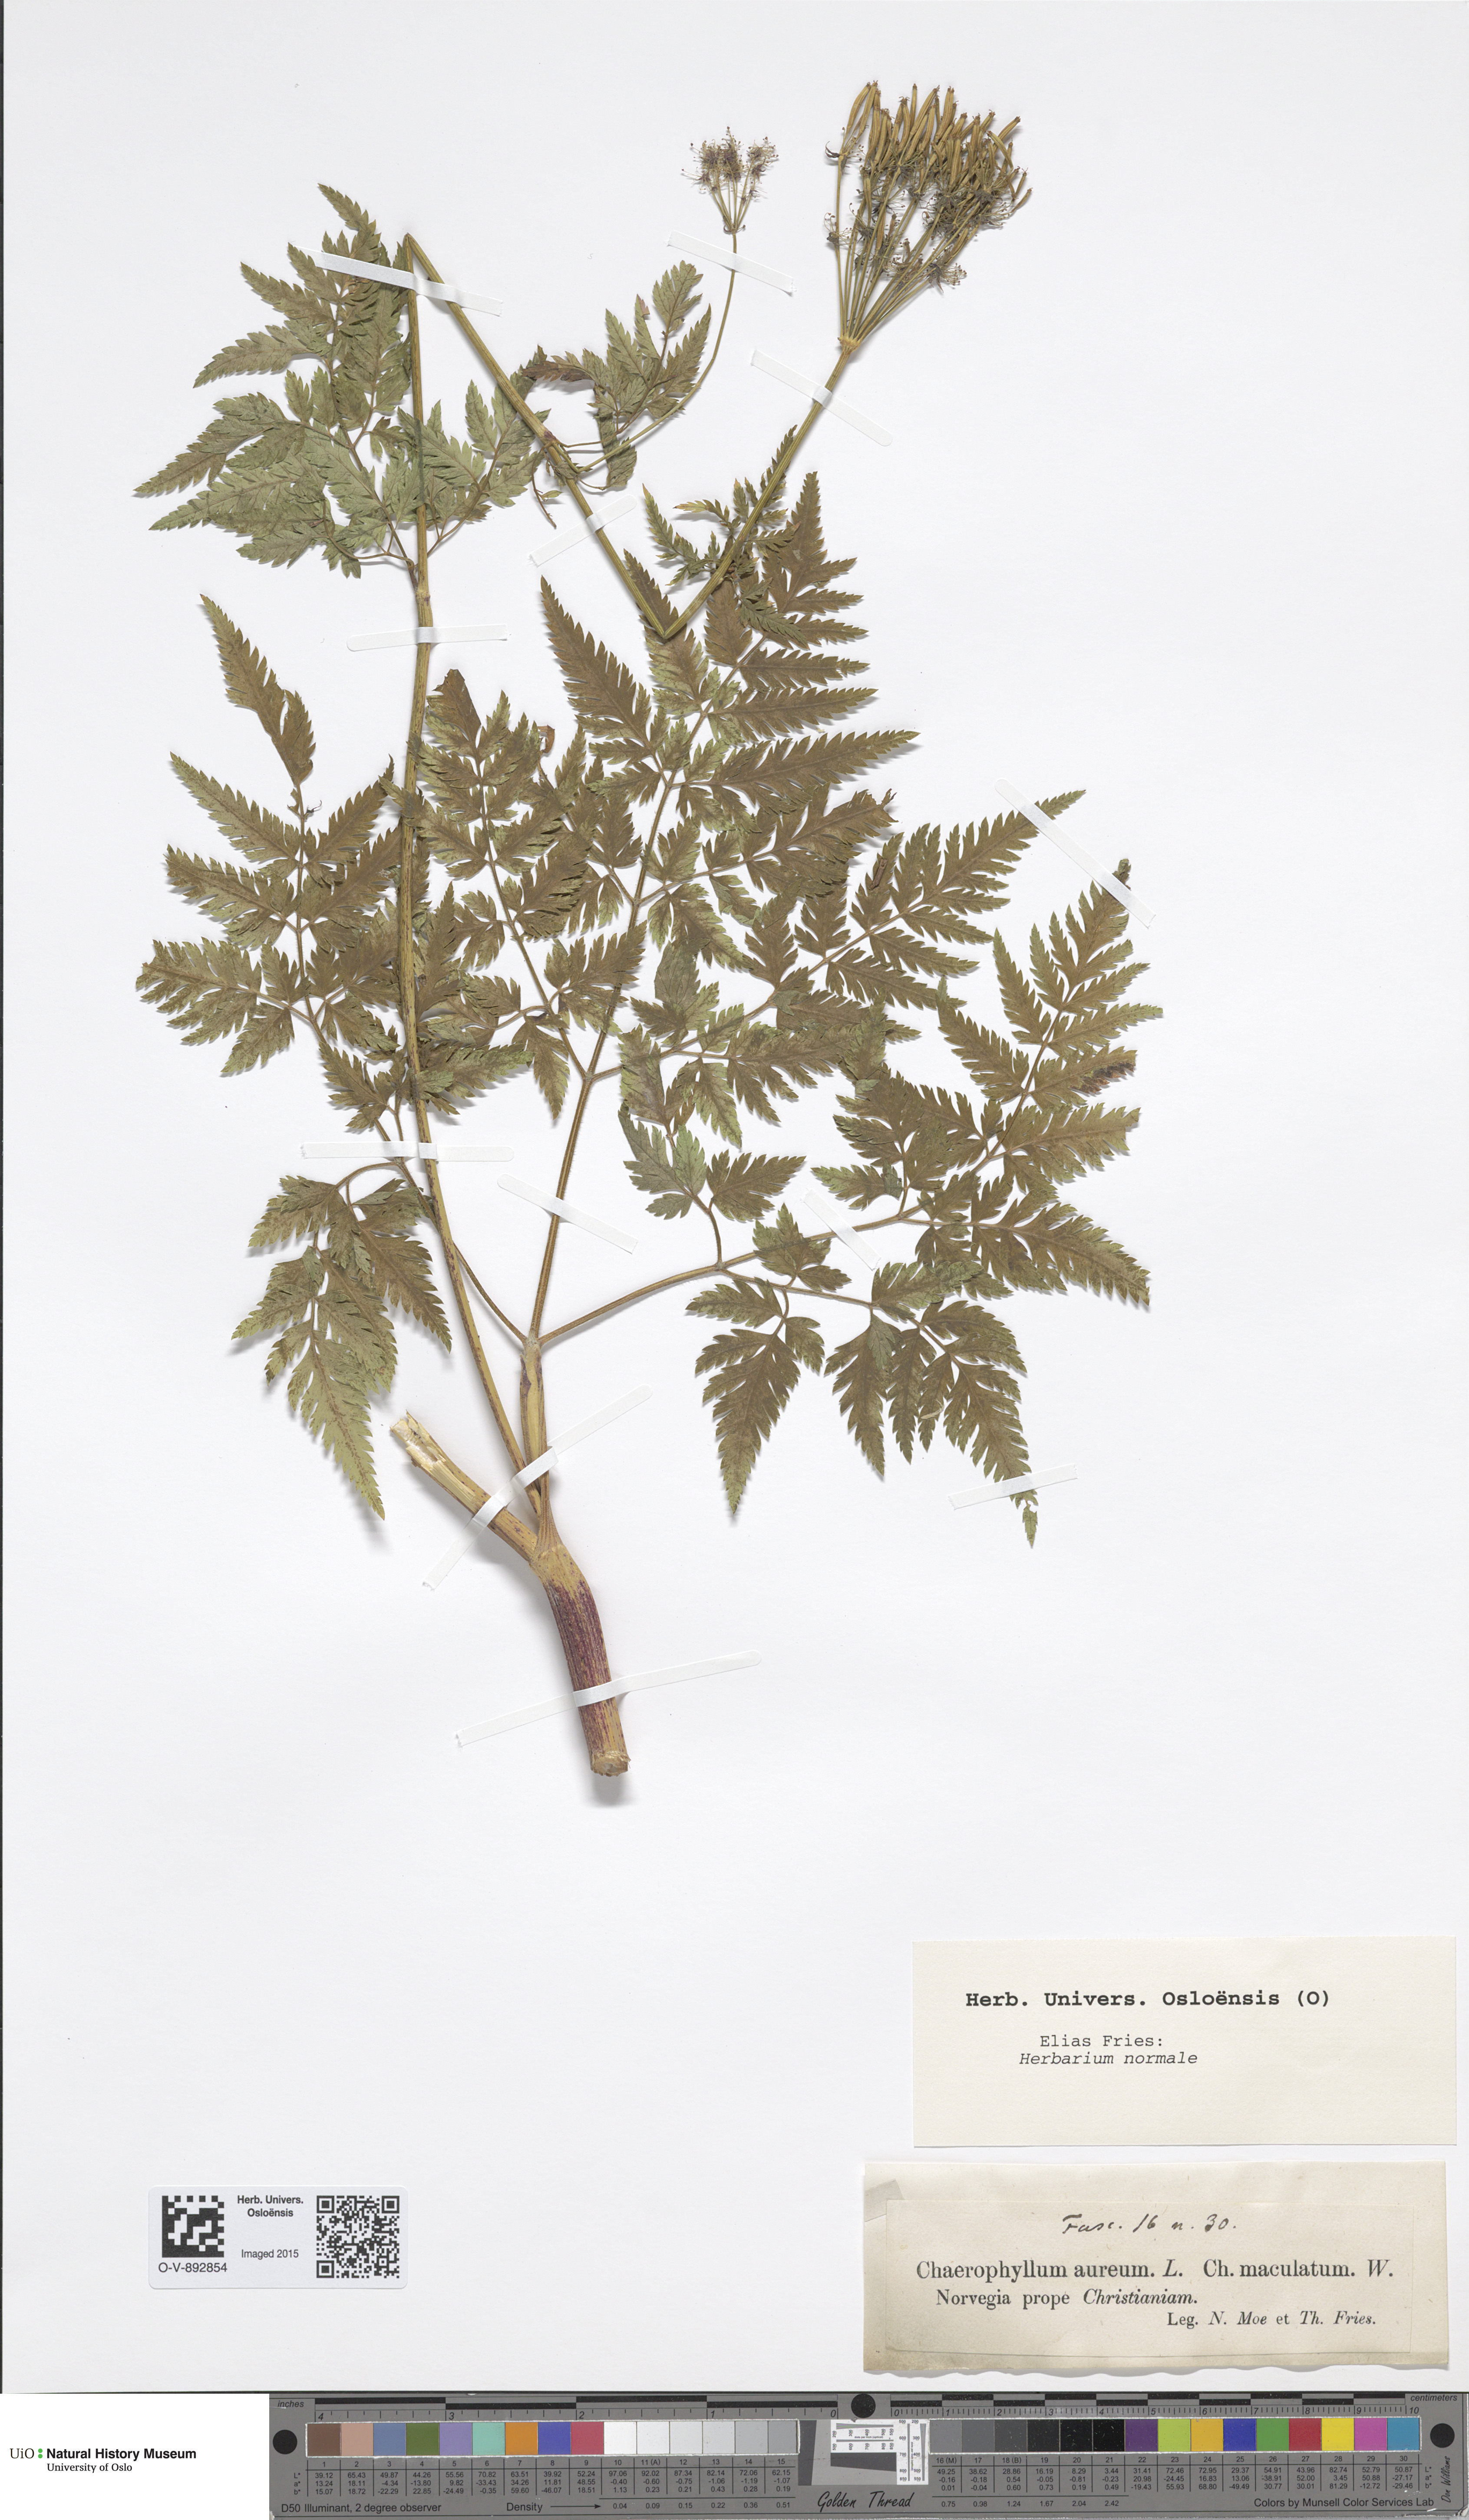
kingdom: Plantae
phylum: Tracheophyta
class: Magnoliopsida
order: Apiales
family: Apiaceae
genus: Chaerophyllum
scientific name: Chaerophyllum aureum
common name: Golden chervil
